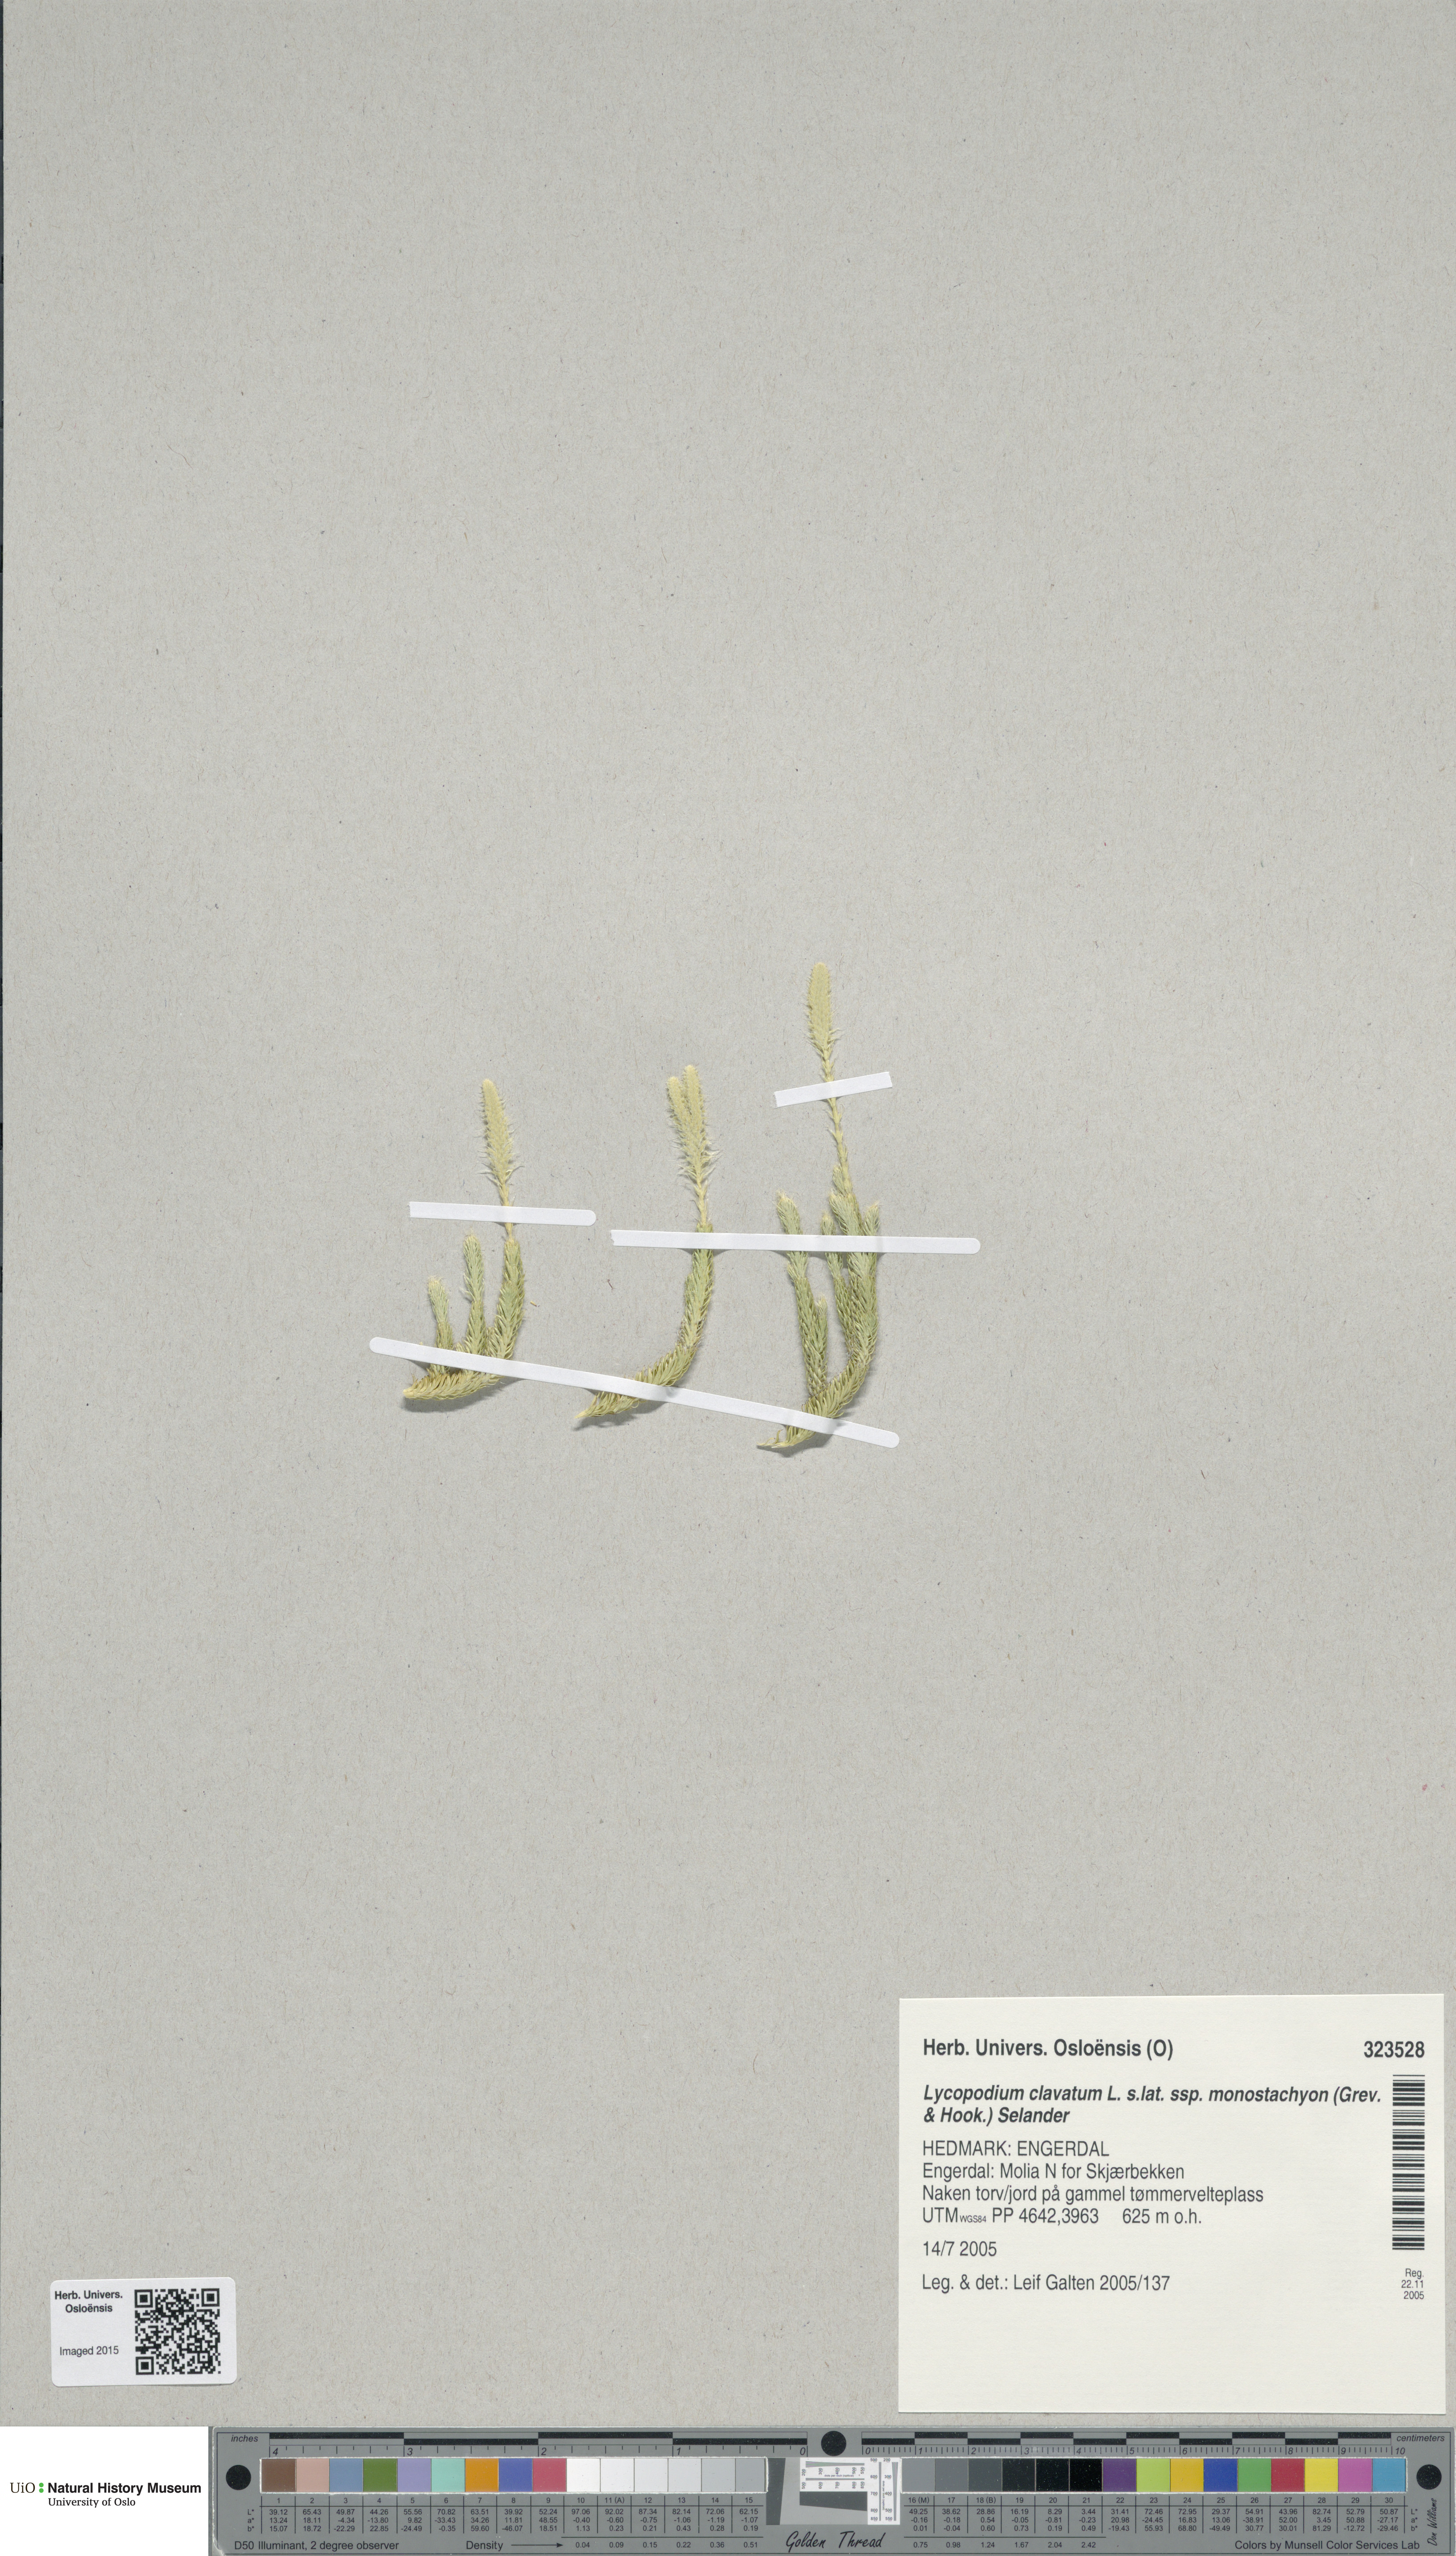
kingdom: Plantae
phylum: Tracheophyta
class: Lycopodiopsida
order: Lycopodiales
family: Lycopodiaceae
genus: Lycopodium
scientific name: Lycopodium lagopus
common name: One-cone clubmoss
